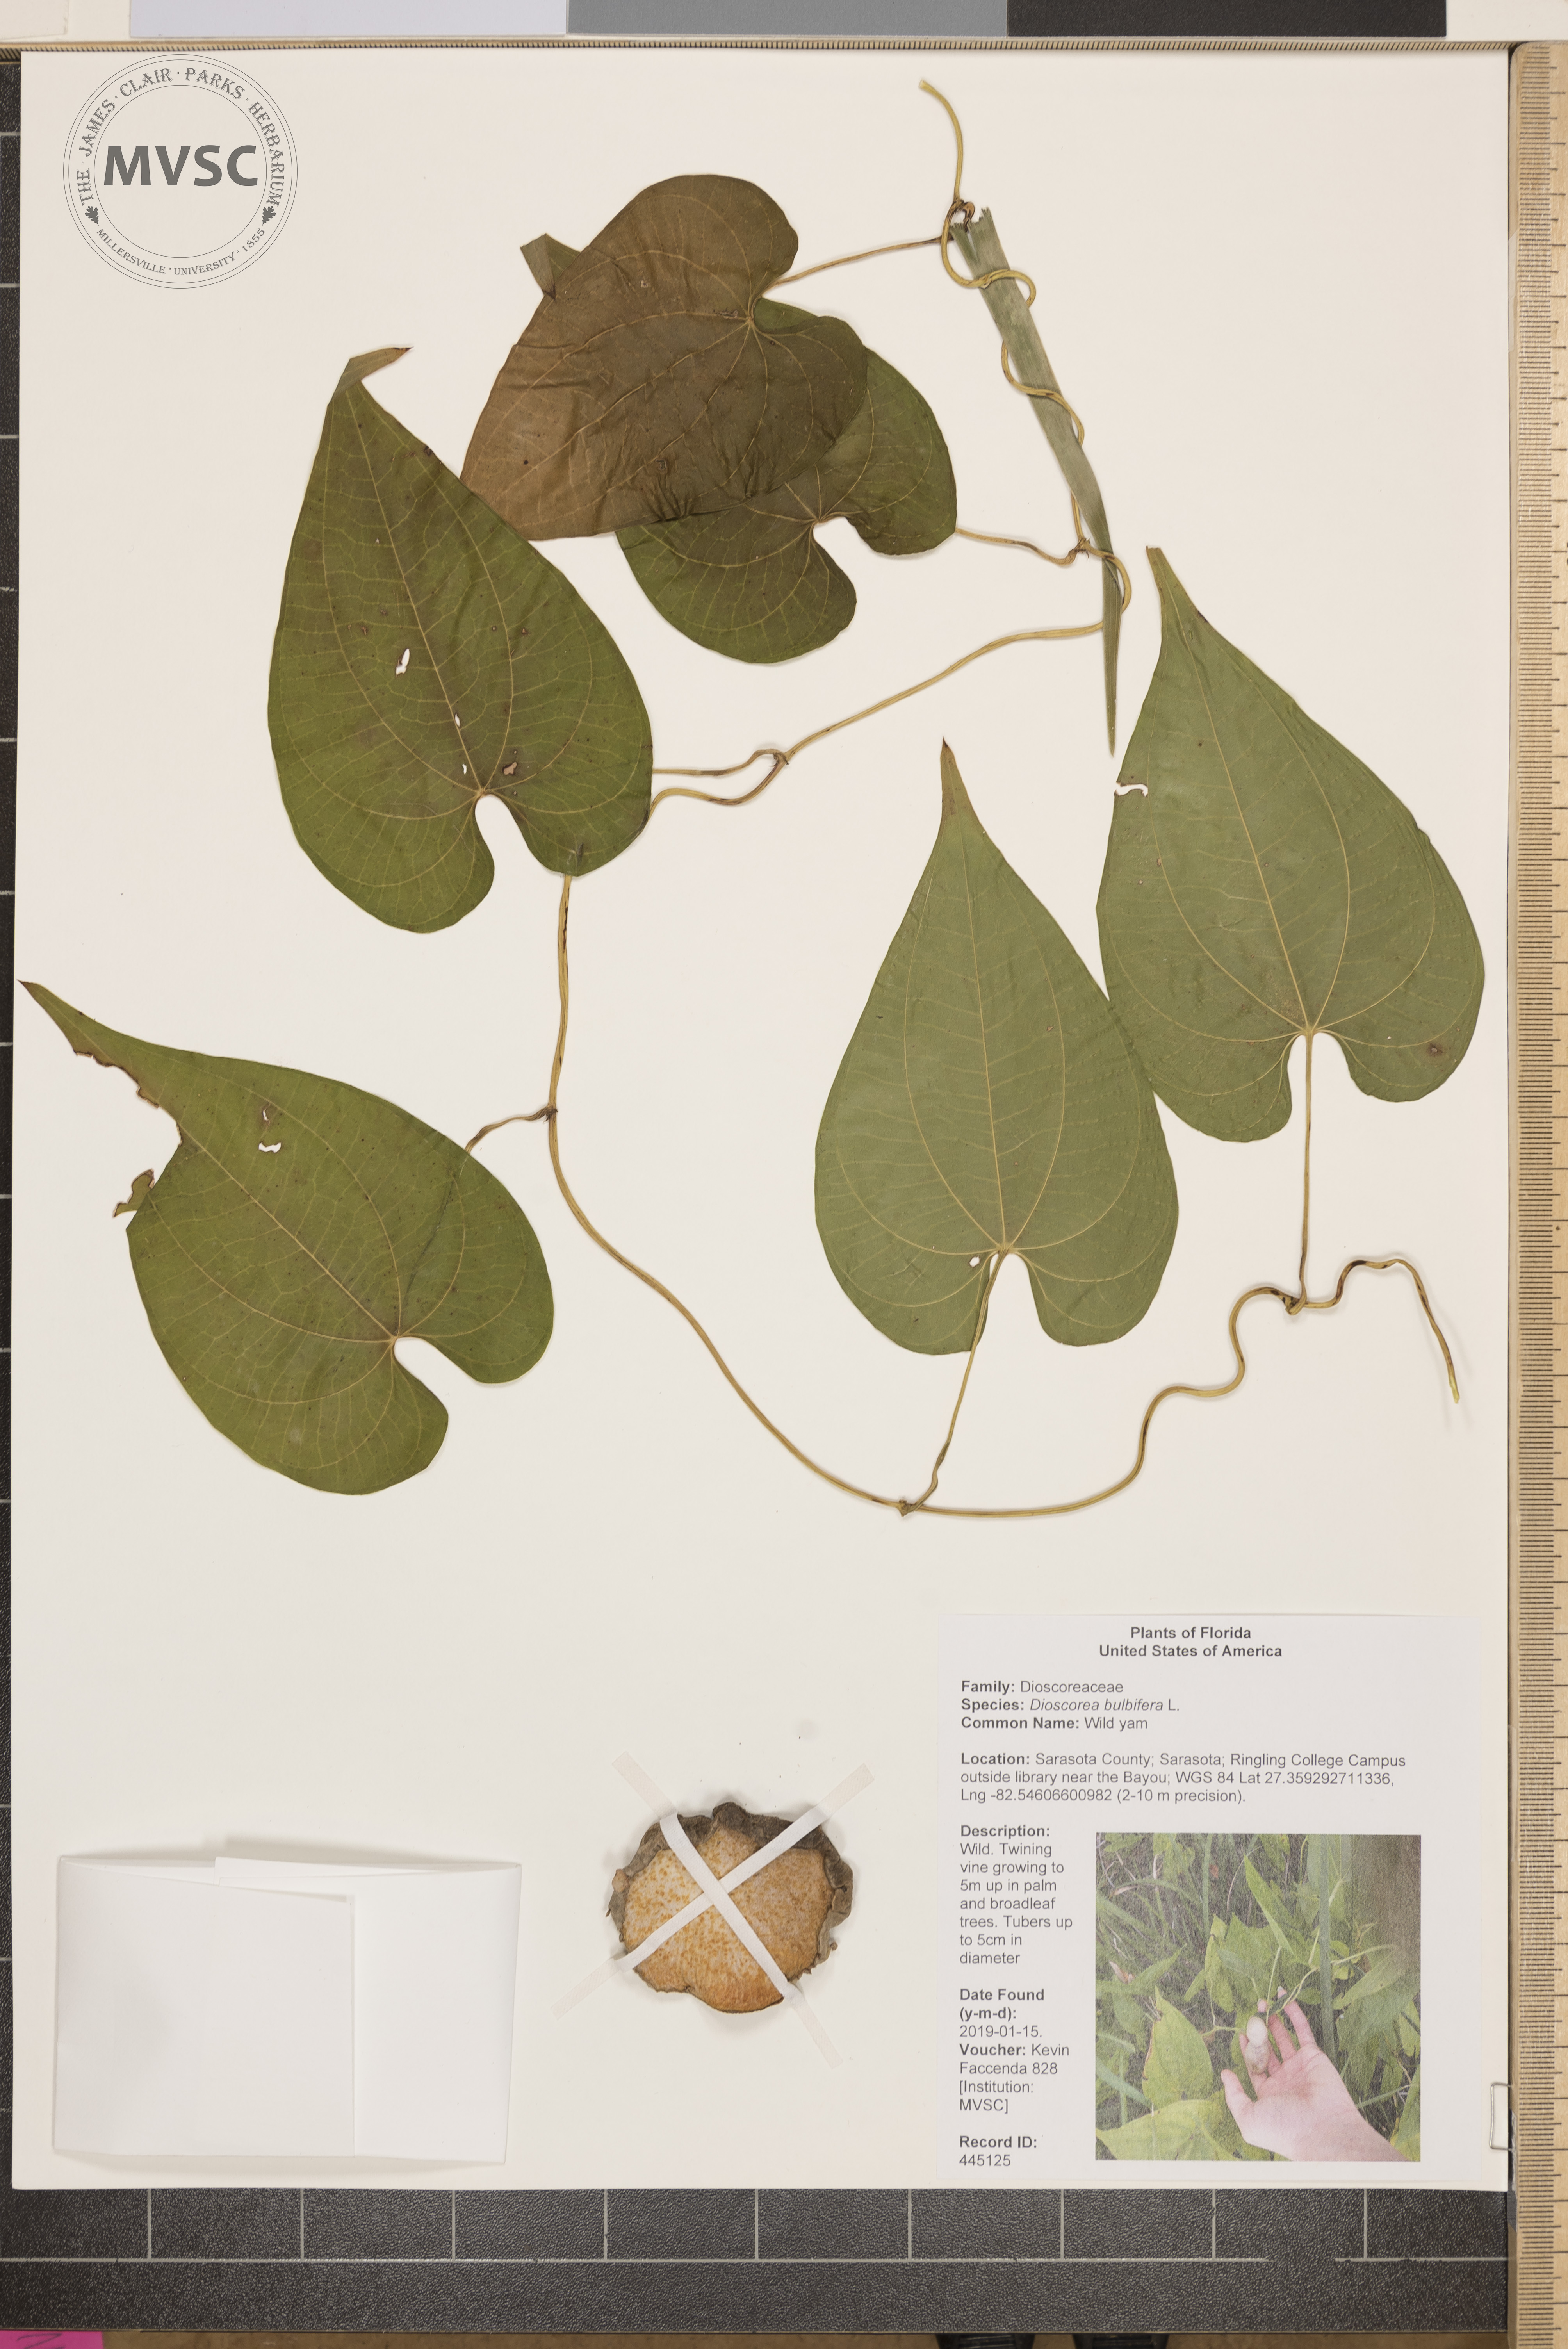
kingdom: Plantae
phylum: Tracheophyta
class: Liliopsida
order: Dioscoreales
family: Dioscoreaceae
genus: Dioscorea
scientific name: Dioscorea bulbifera
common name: Wild yam
